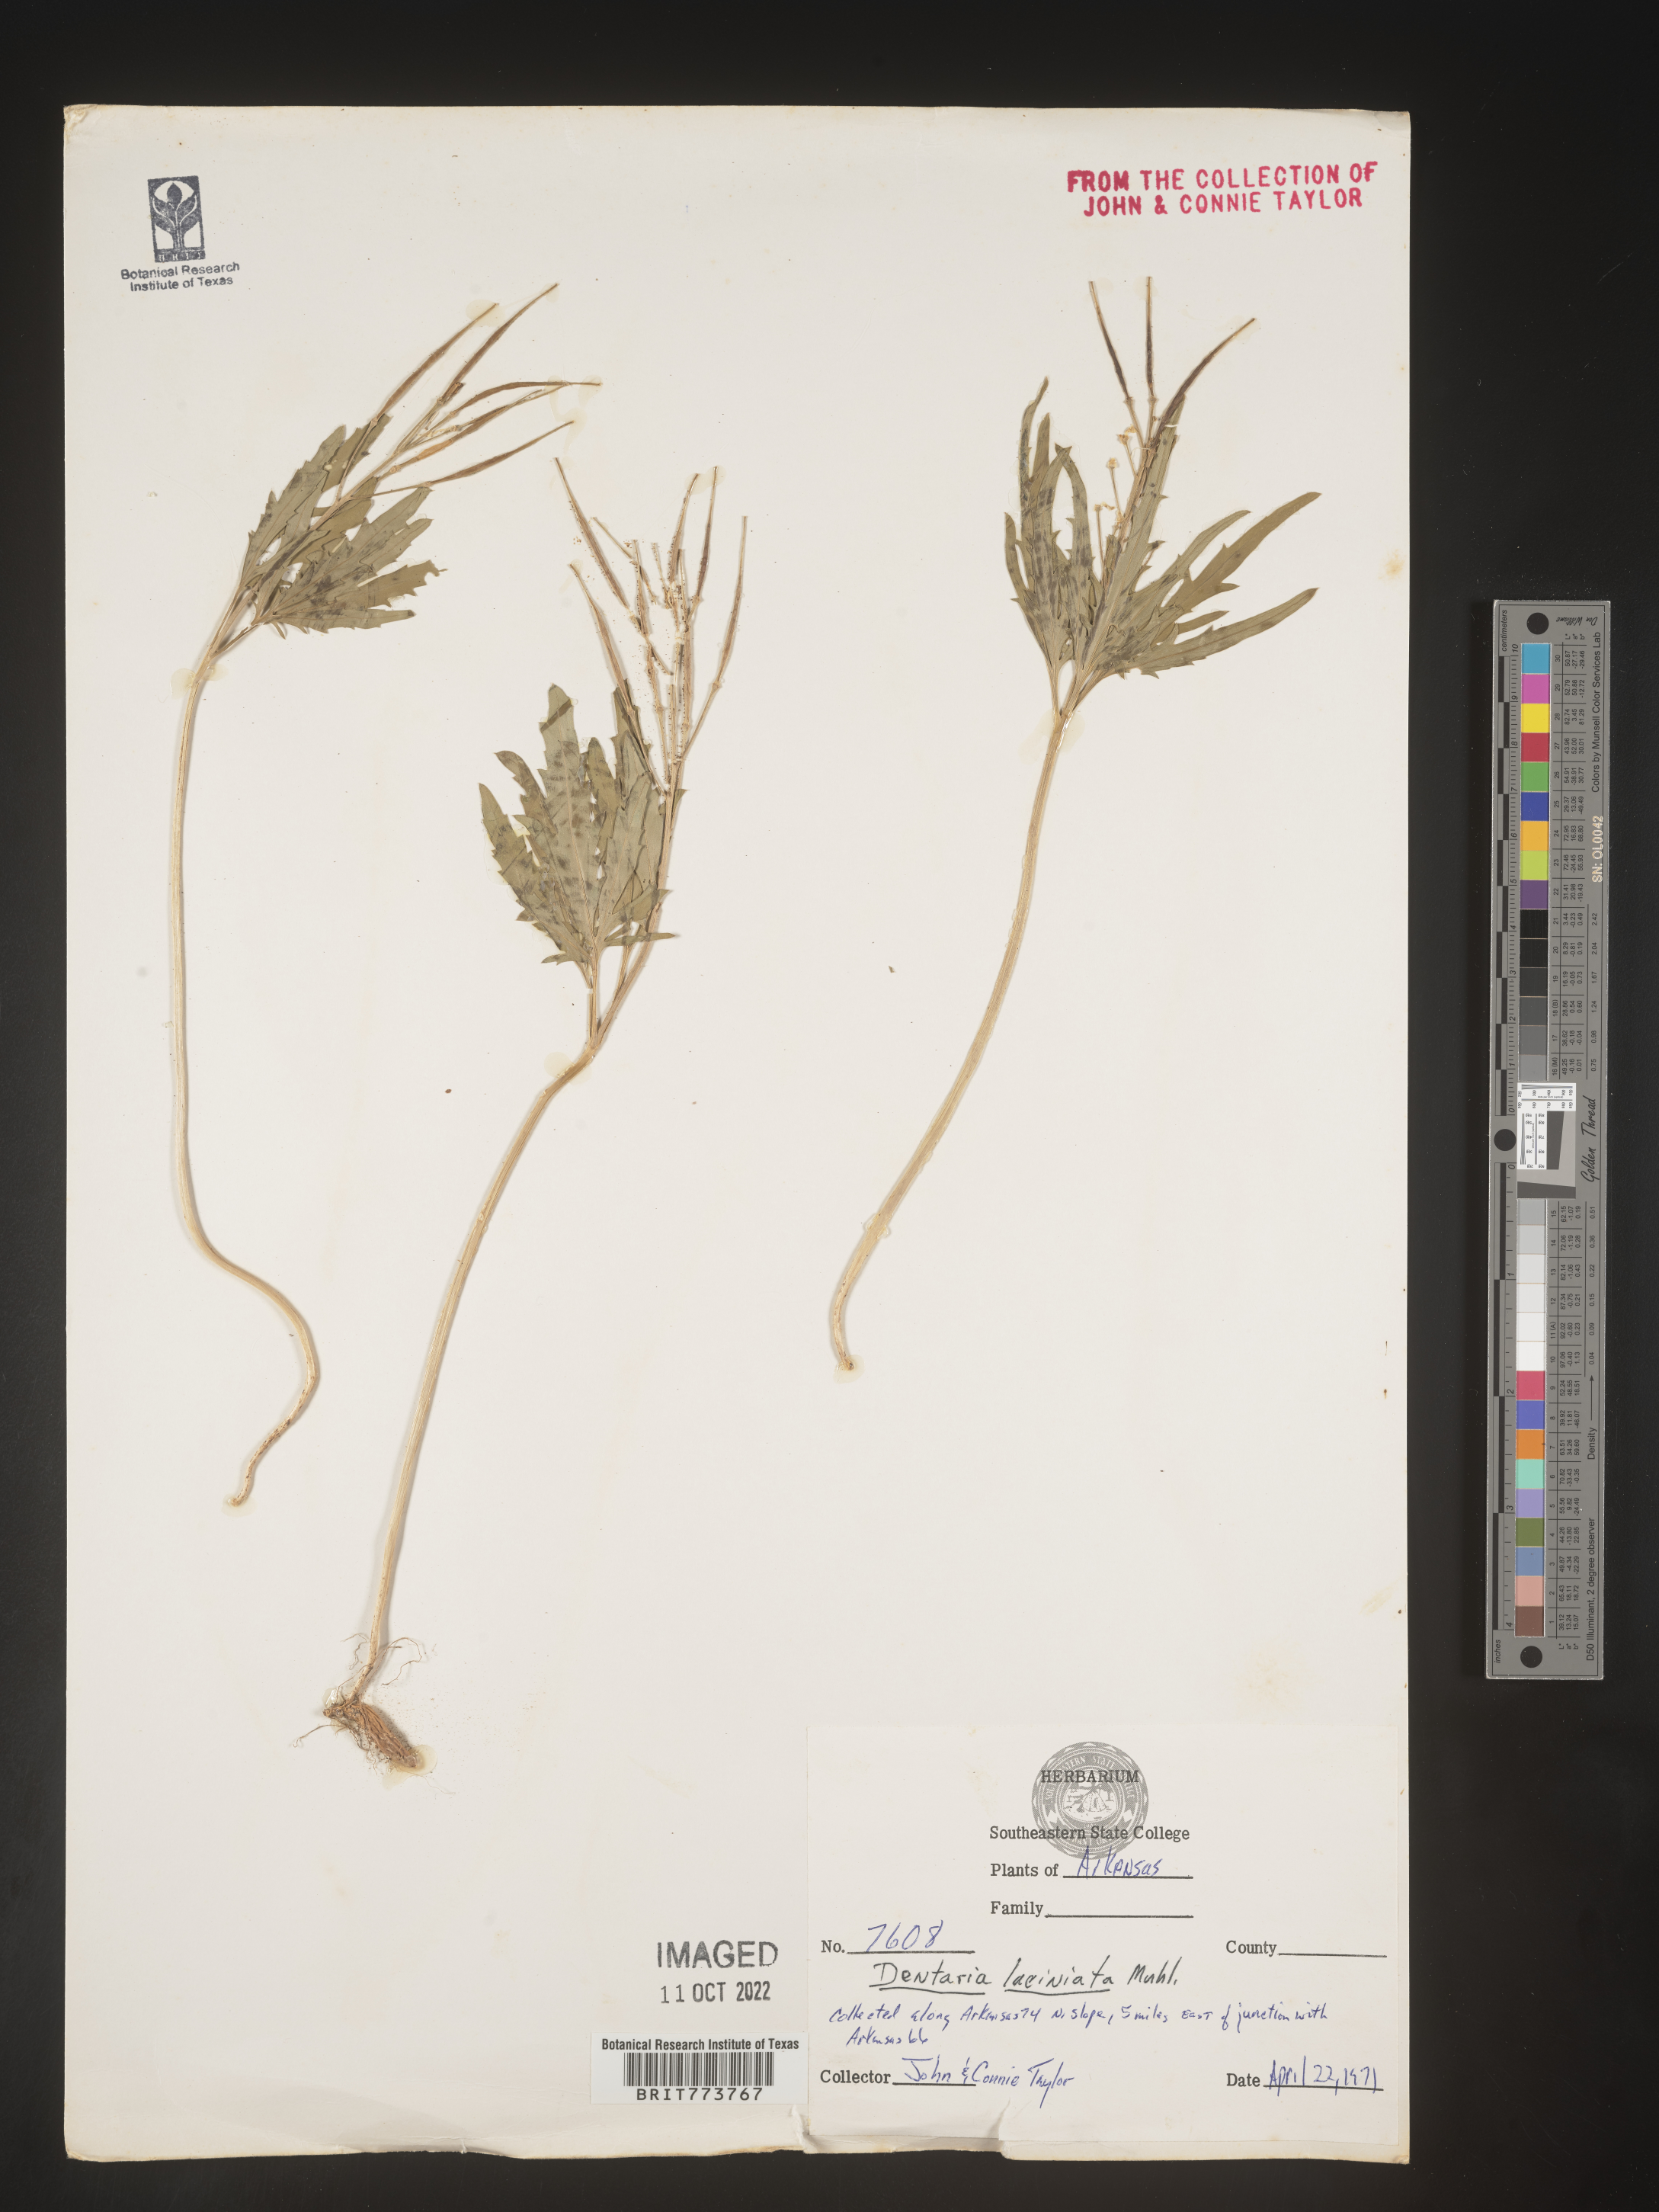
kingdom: Plantae
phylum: Tracheophyta
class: Magnoliopsida
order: Brassicales
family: Brassicaceae
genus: Rorippa
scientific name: Rorippa laciniata
